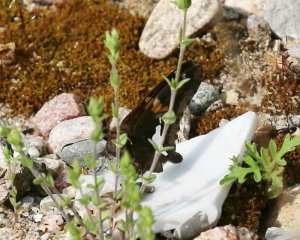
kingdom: Animalia
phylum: Arthropoda
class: Insecta
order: Lepidoptera
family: Hesperiidae
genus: Epargyreus
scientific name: Epargyreus clarus
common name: Silver-spotted Skipper
